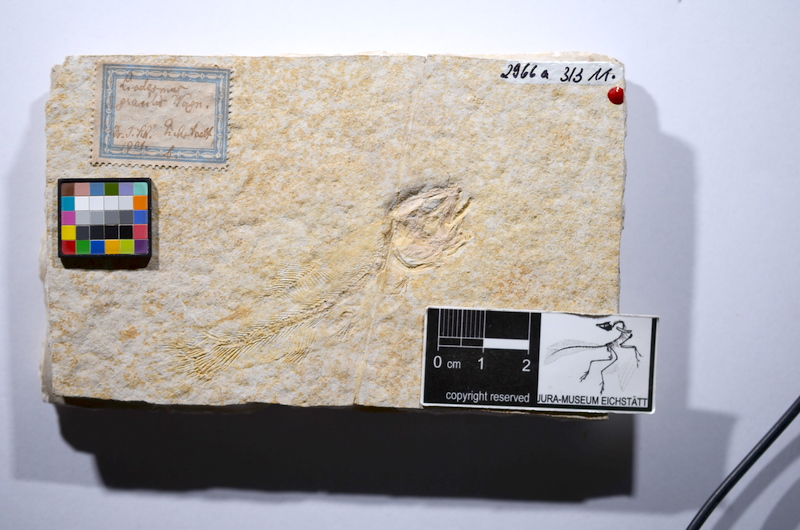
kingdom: Animalia
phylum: Chordata
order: Amiiformes
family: Amiidae
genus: Amiopsis
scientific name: Amiopsis lepidota
